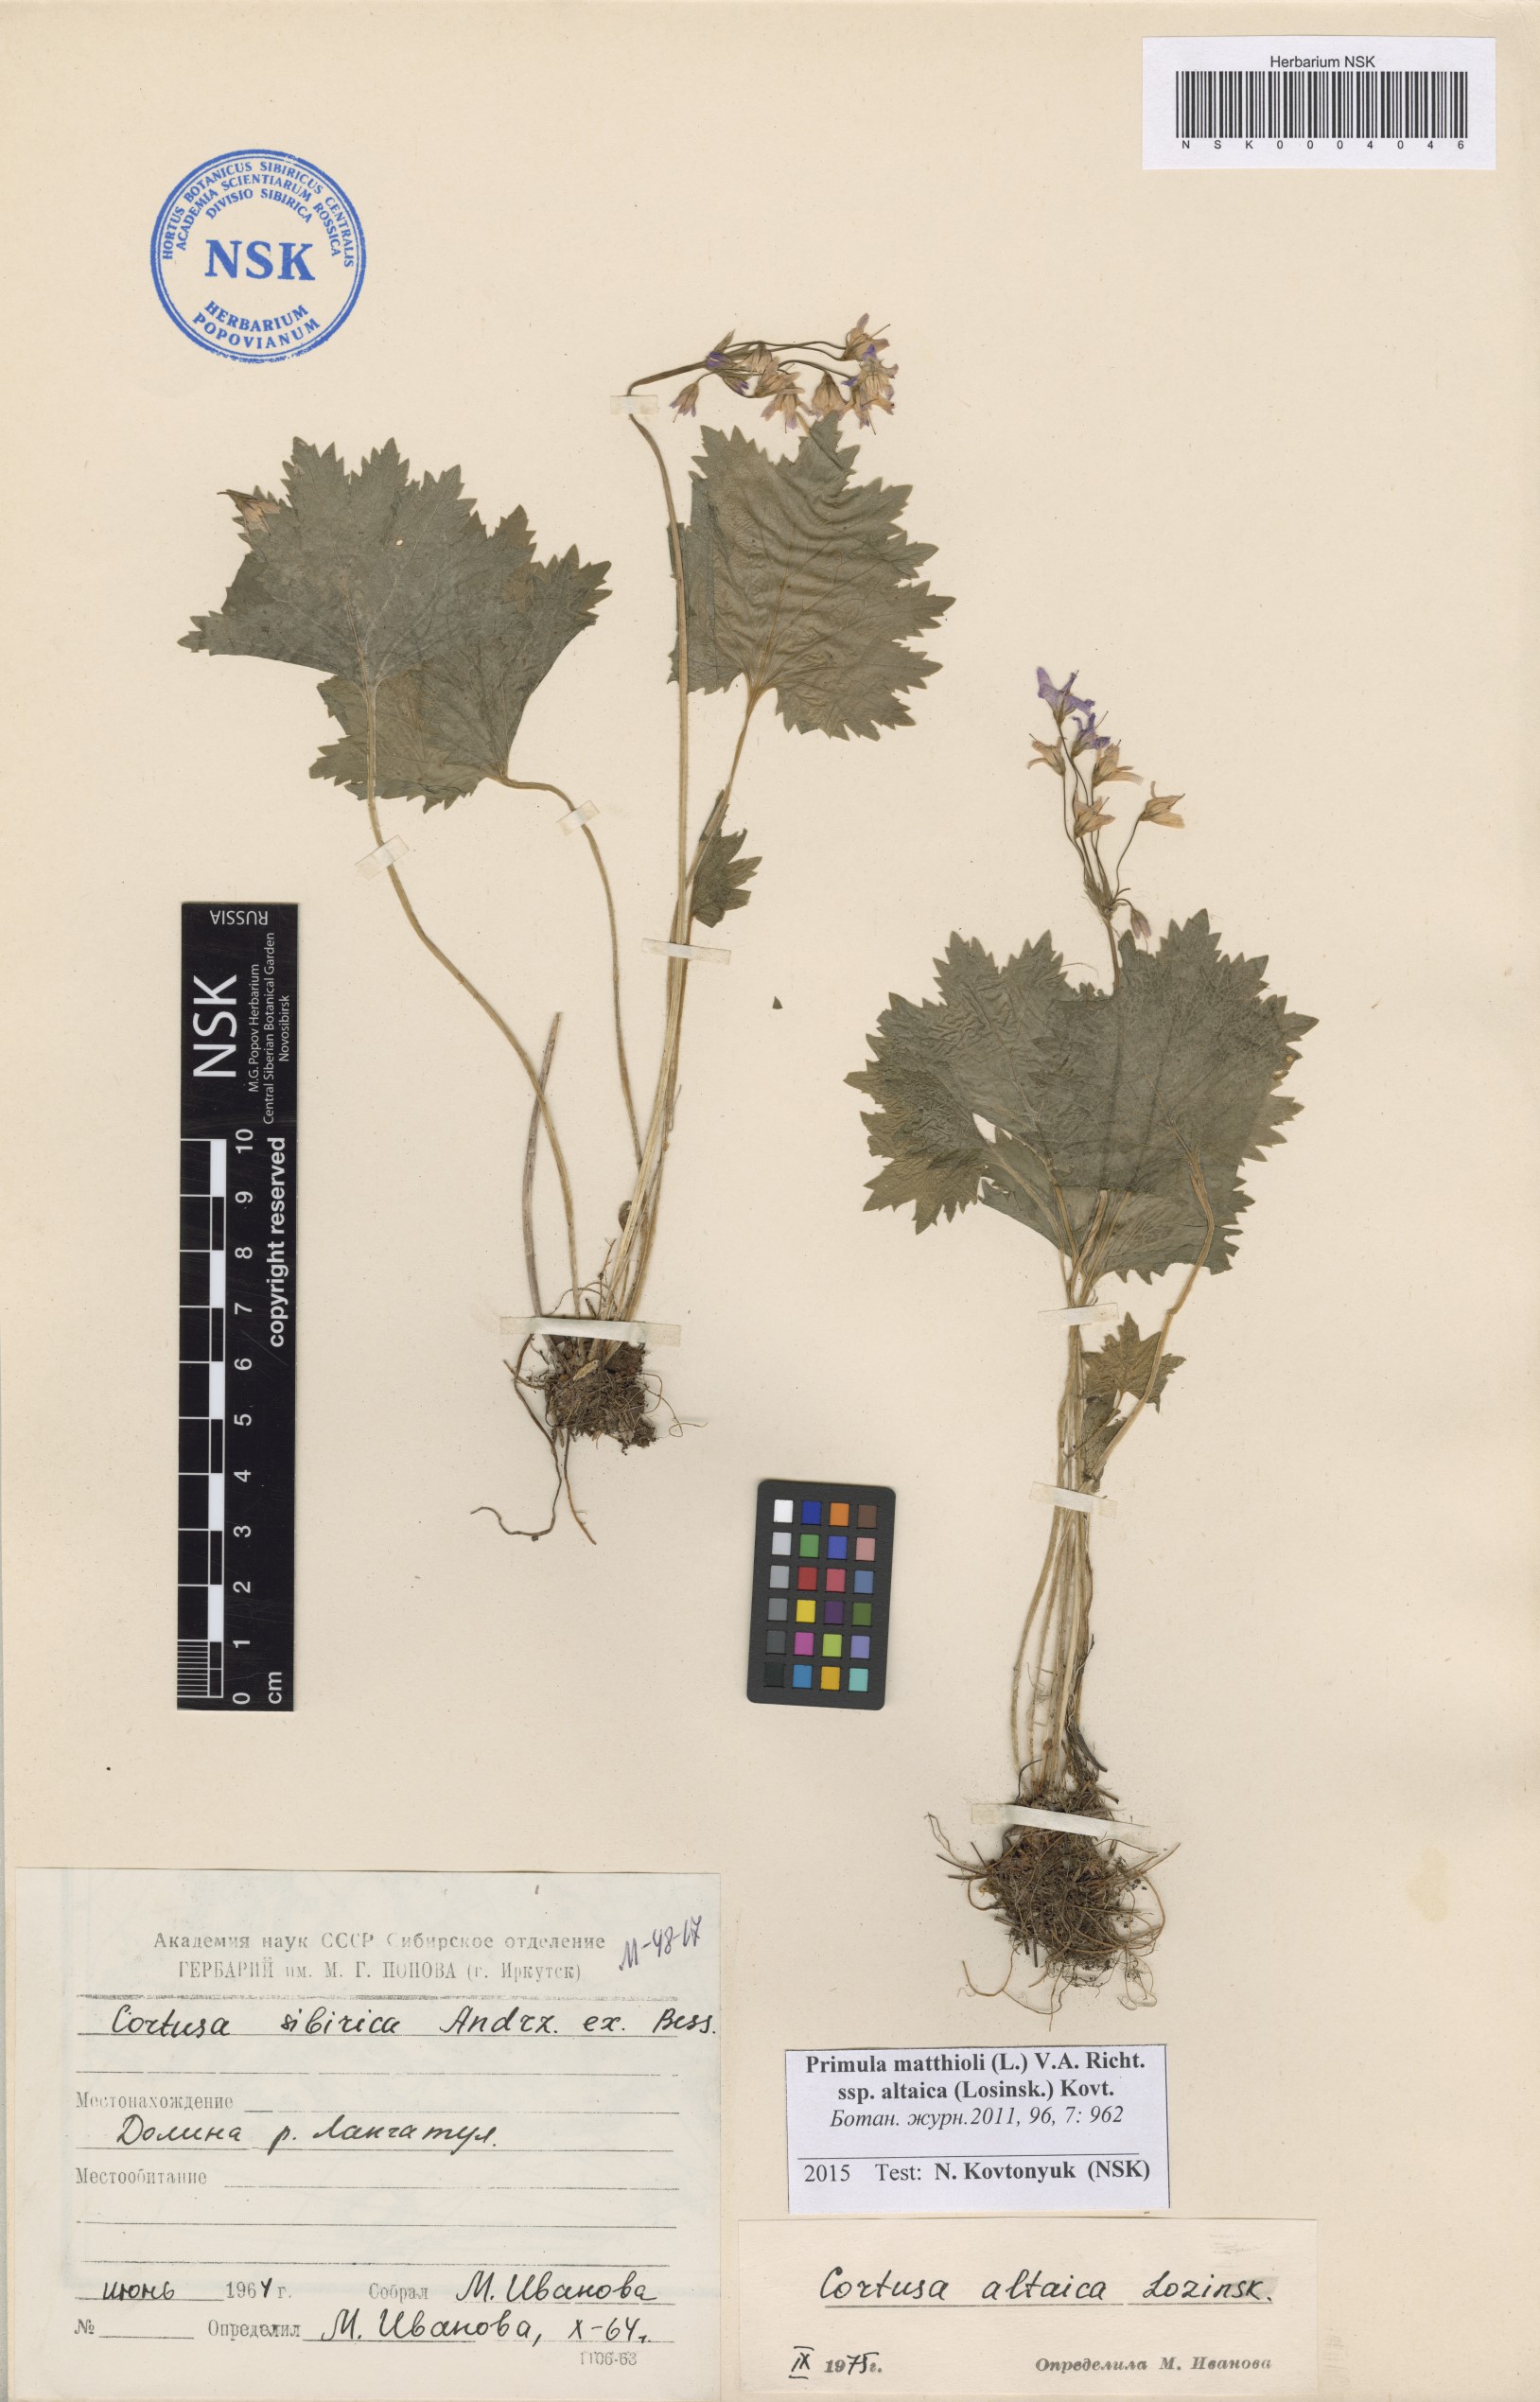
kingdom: Plantae
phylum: Tracheophyta
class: Magnoliopsida
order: Ericales
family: Primulaceae
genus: Primula
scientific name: Primula matthioli
